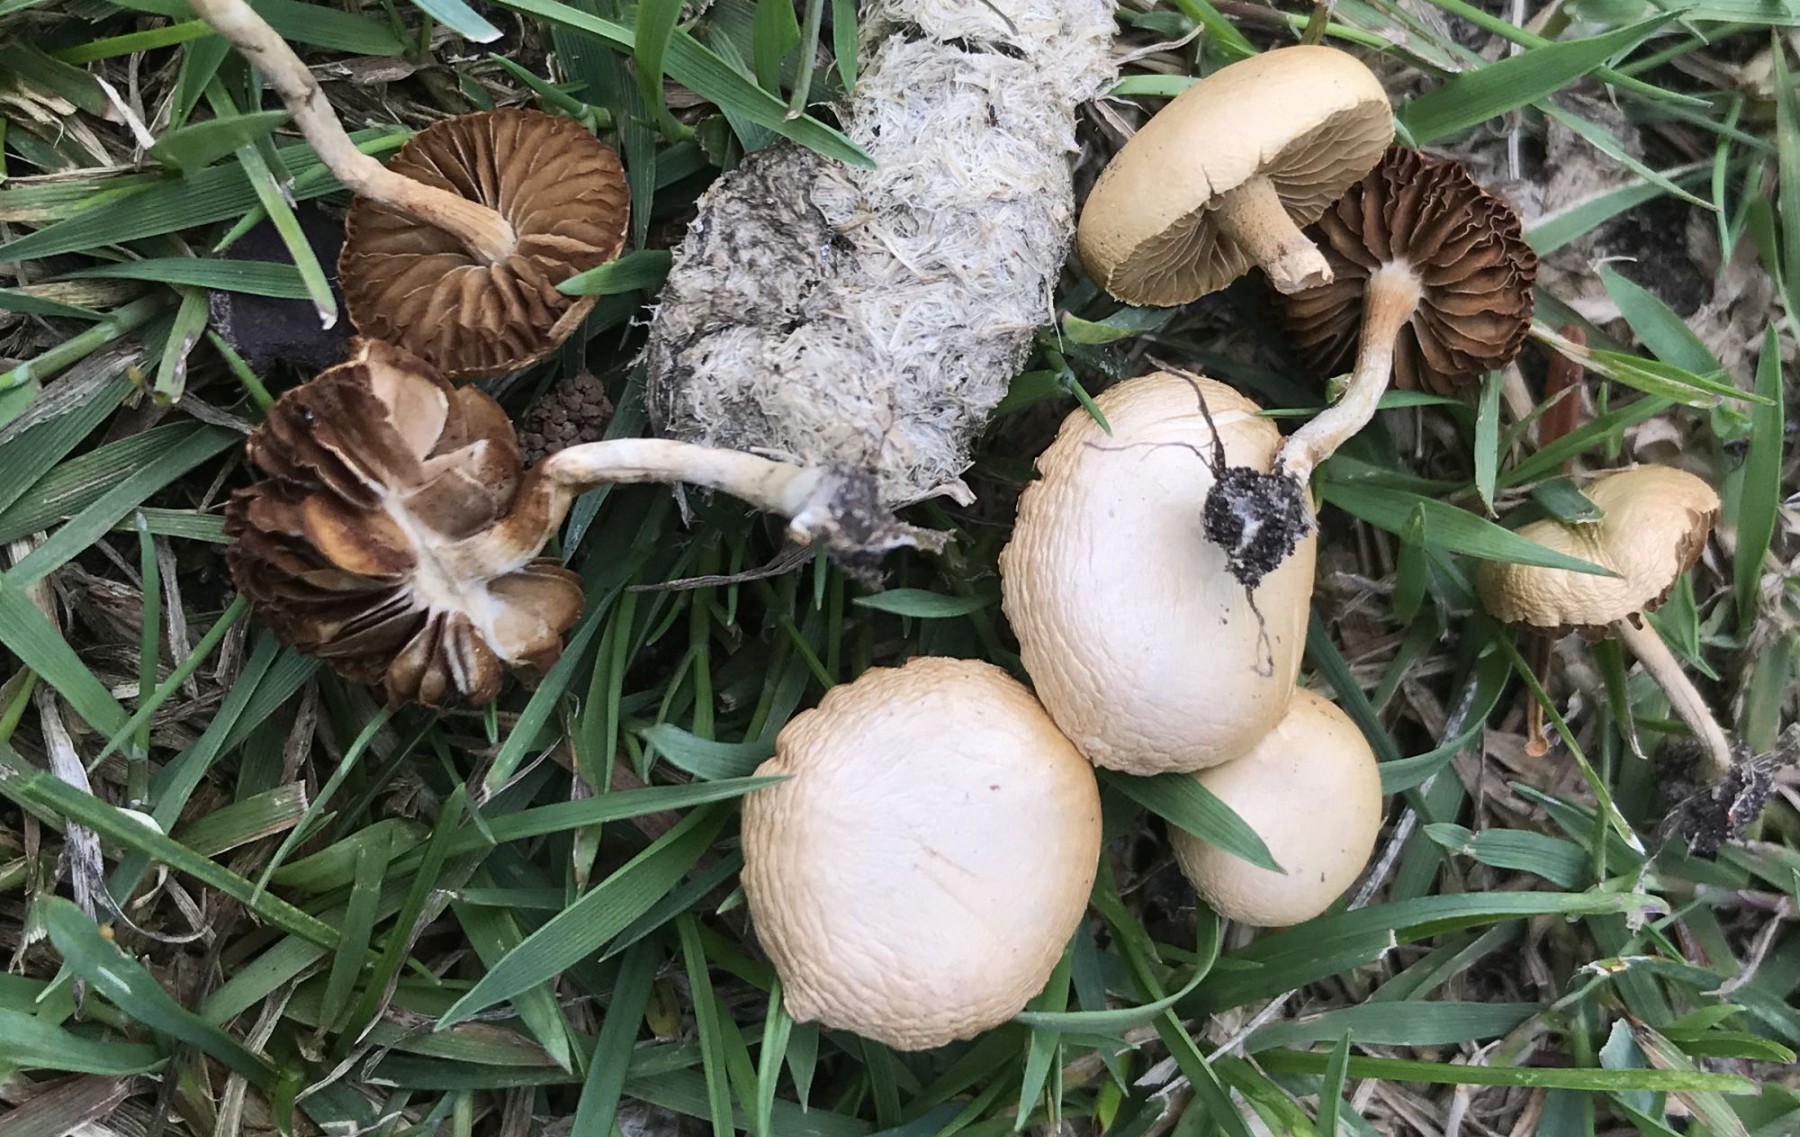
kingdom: Fungi
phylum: Basidiomycota
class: Agaricomycetes
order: Agaricales
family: Strophariaceae
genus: Agrocybe
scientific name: Agrocybe pediades
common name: almindelig agerhat
